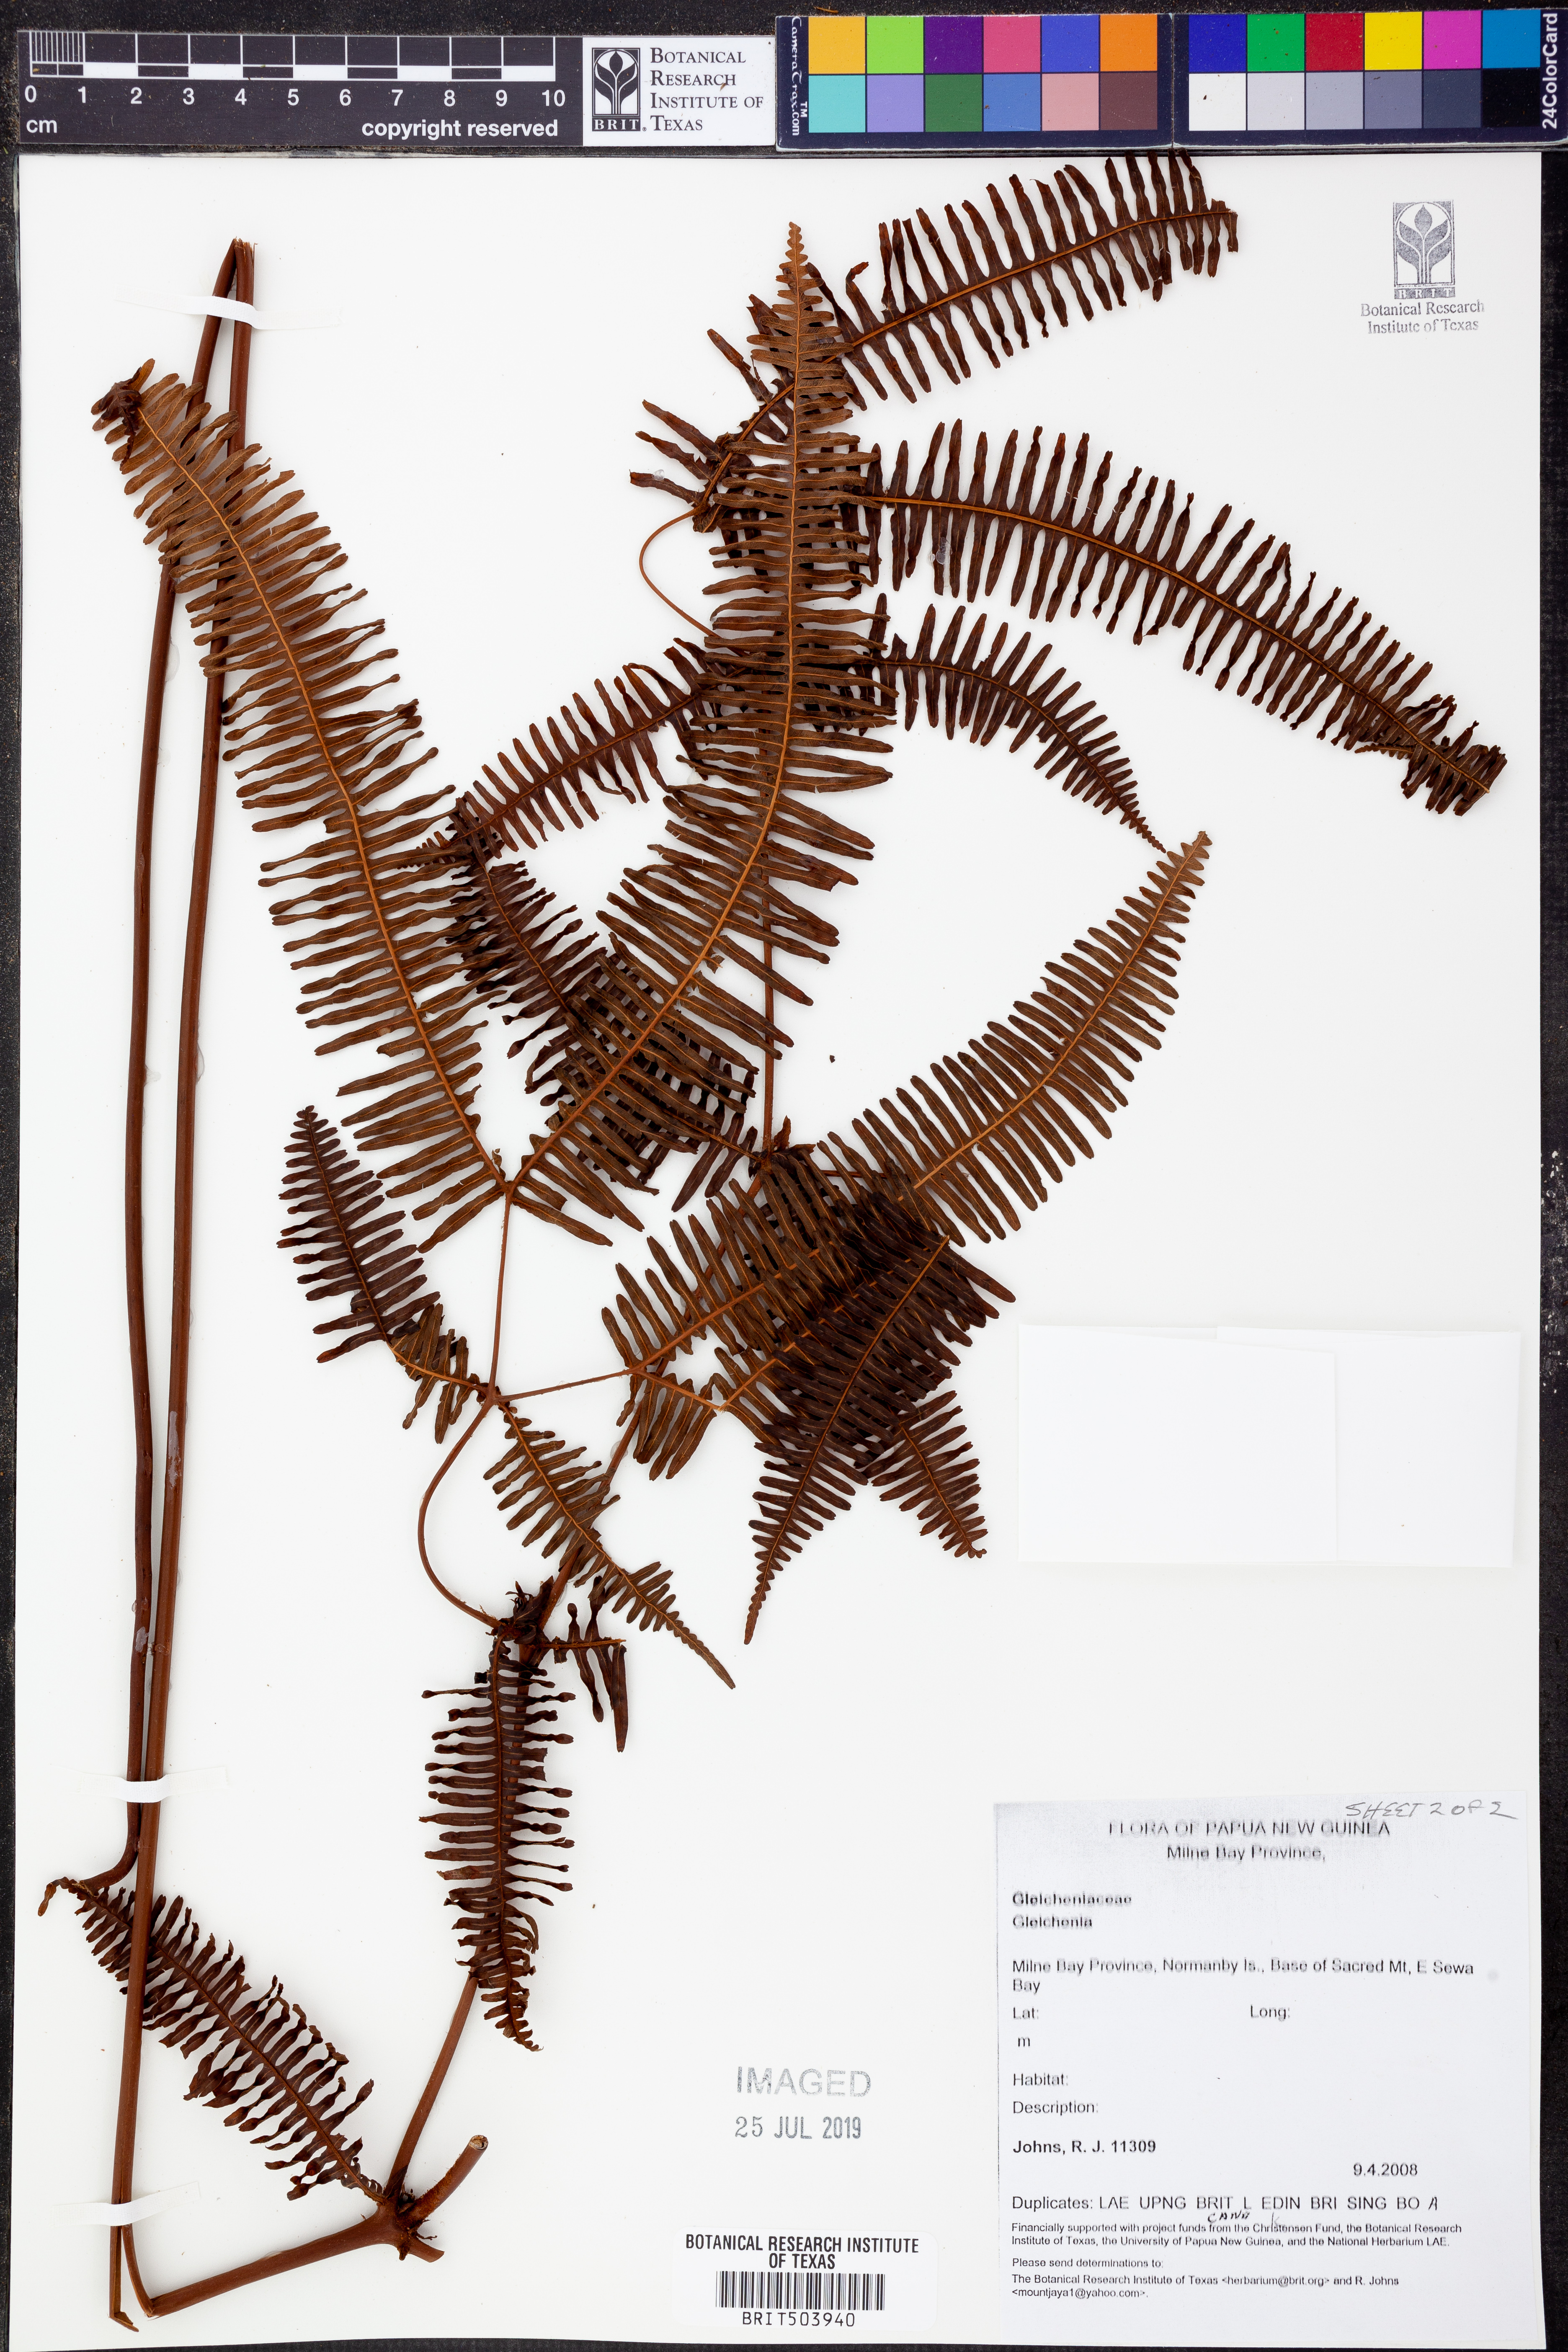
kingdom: Plantae
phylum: Tracheophyta
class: Polypodiopsida
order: Gleicheniales
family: Gleicheniaceae
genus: Gleichenia
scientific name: Gleichenia
